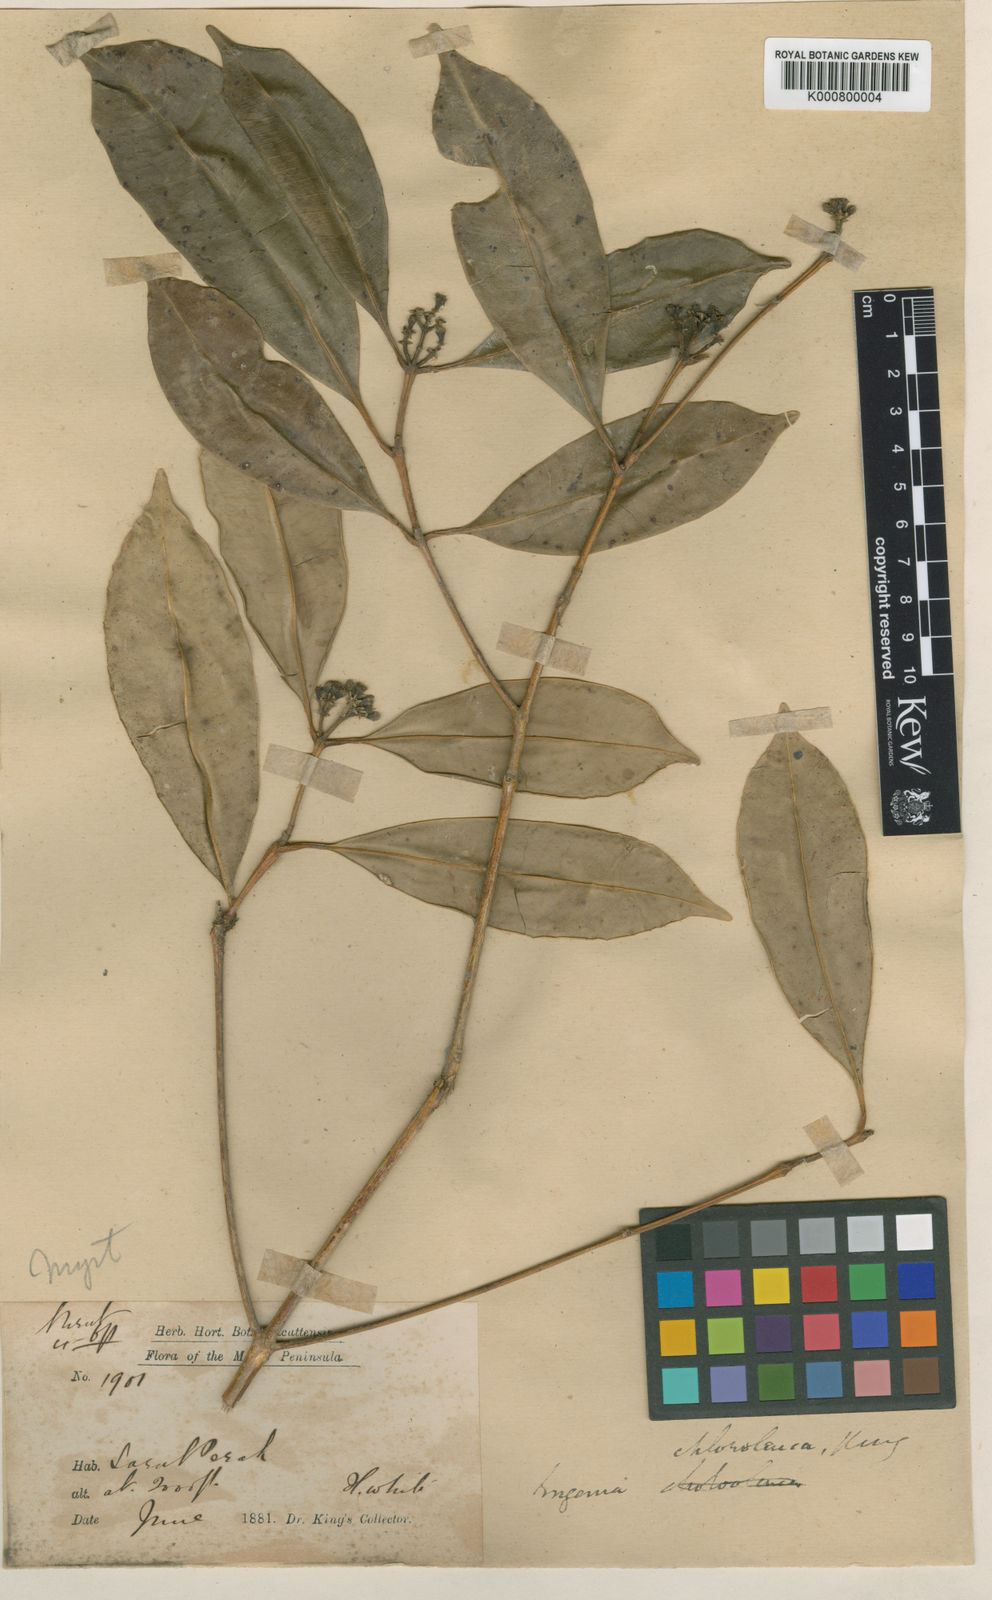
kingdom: Plantae
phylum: Tracheophyta
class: Magnoliopsida
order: Myrtales
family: Myrtaceae
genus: Syzygium
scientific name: Syzygium chloroleucum
